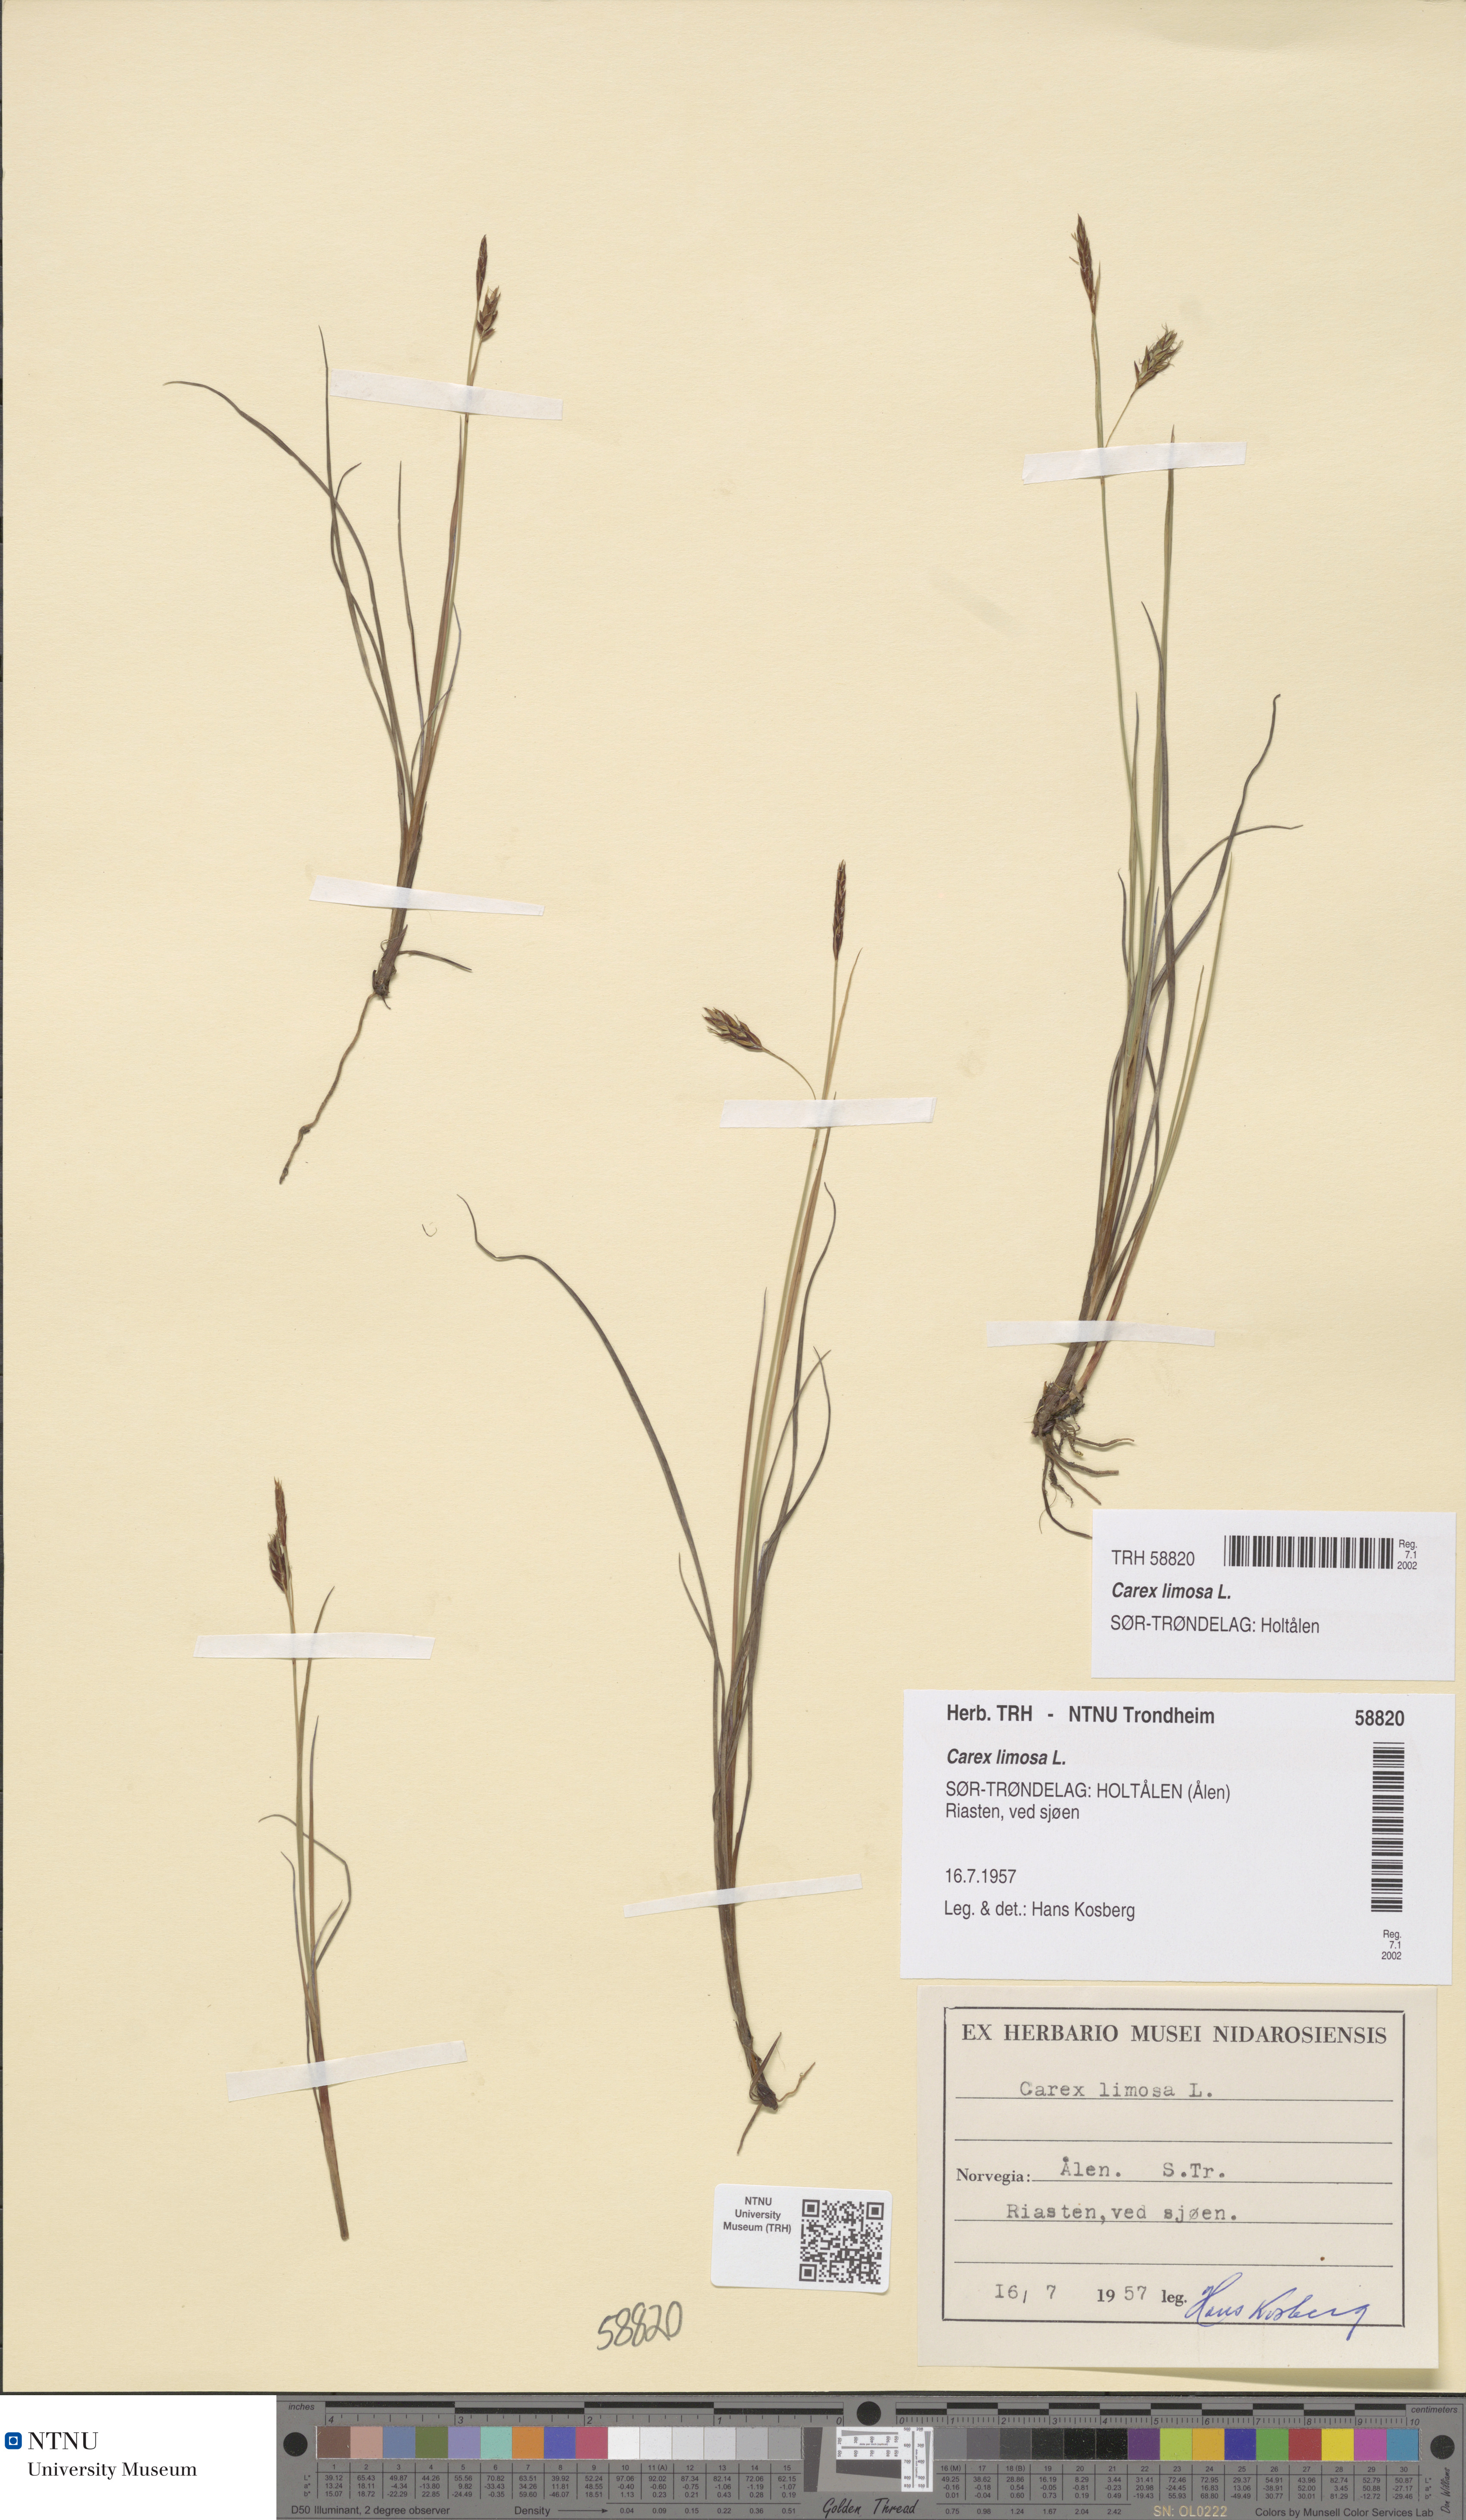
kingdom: Plantae
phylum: Tracheophyta
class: Liliopsida
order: Poales
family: Cyperaceae
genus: Carex
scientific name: Carex limosa
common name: Bog sedge
